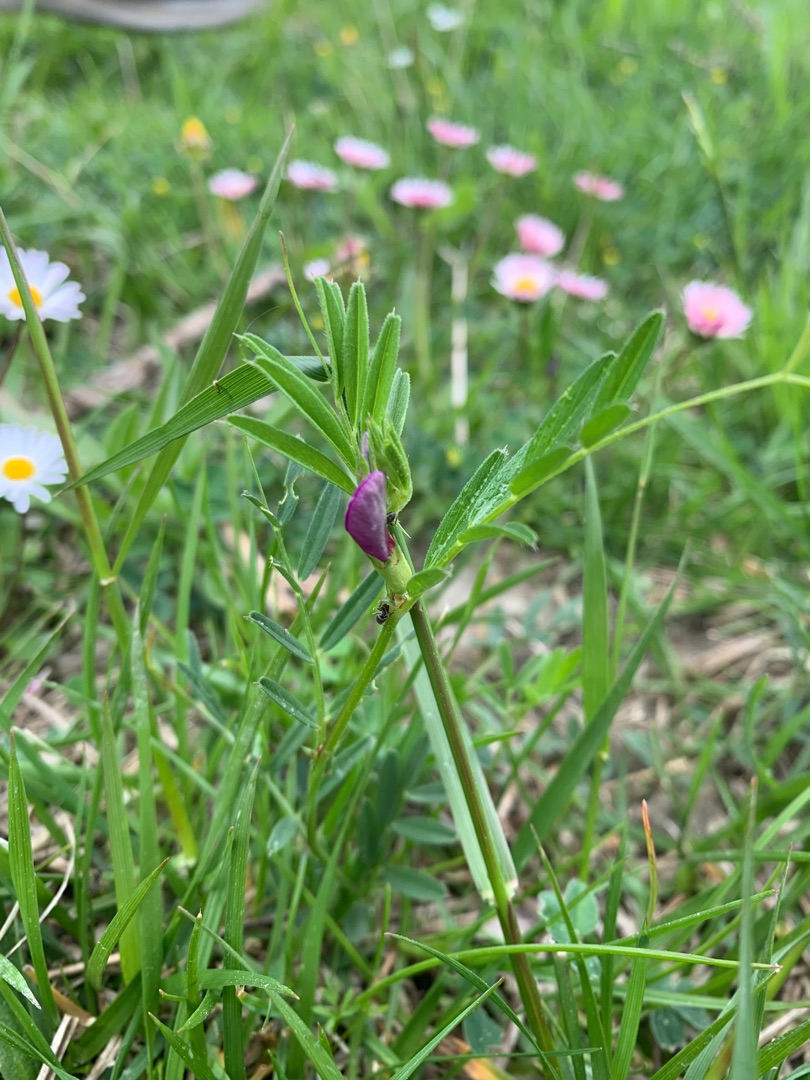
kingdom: Plantae
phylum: Tracheophyta
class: Magnoliopsida
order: Fabales
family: Fabaceae
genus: Vicia
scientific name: Vicia sativa
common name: Smalbladet vikke
